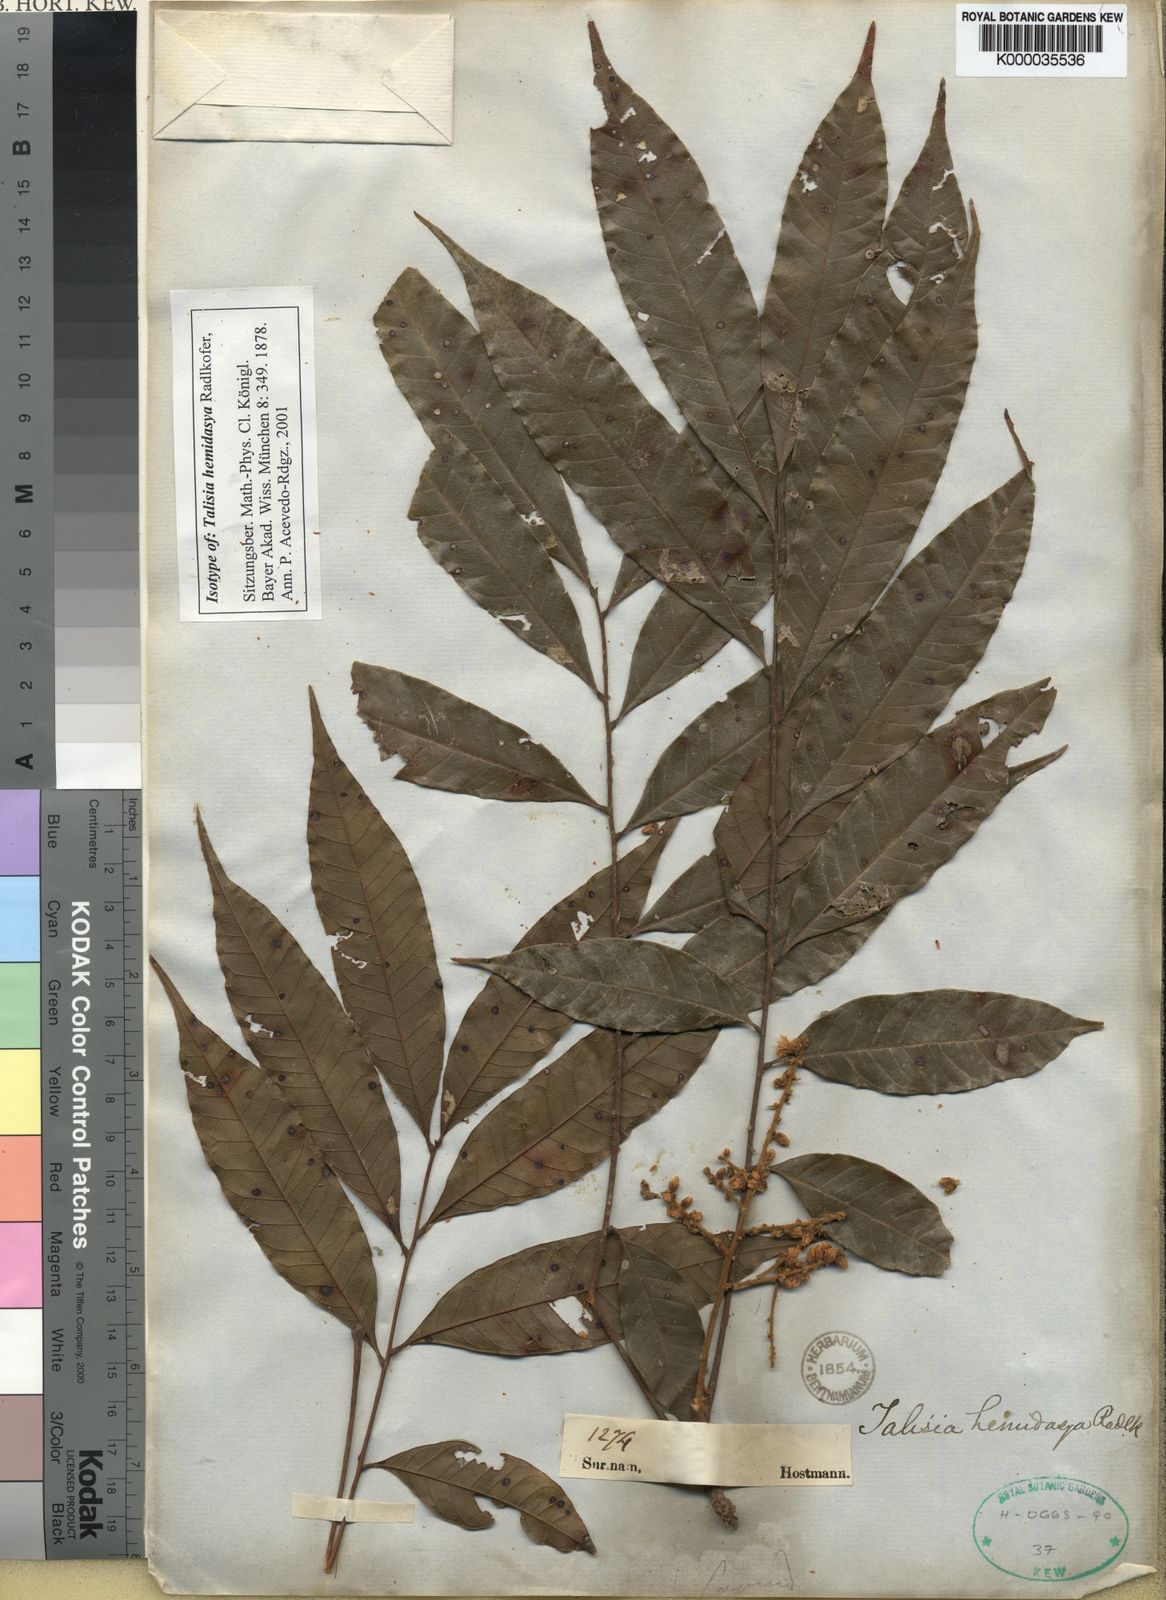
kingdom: Plantae
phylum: Tracheophyta
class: Magnoliopsida
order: Sapindales
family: Sapindaceae
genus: Talisia
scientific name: Talisia hemidasya
